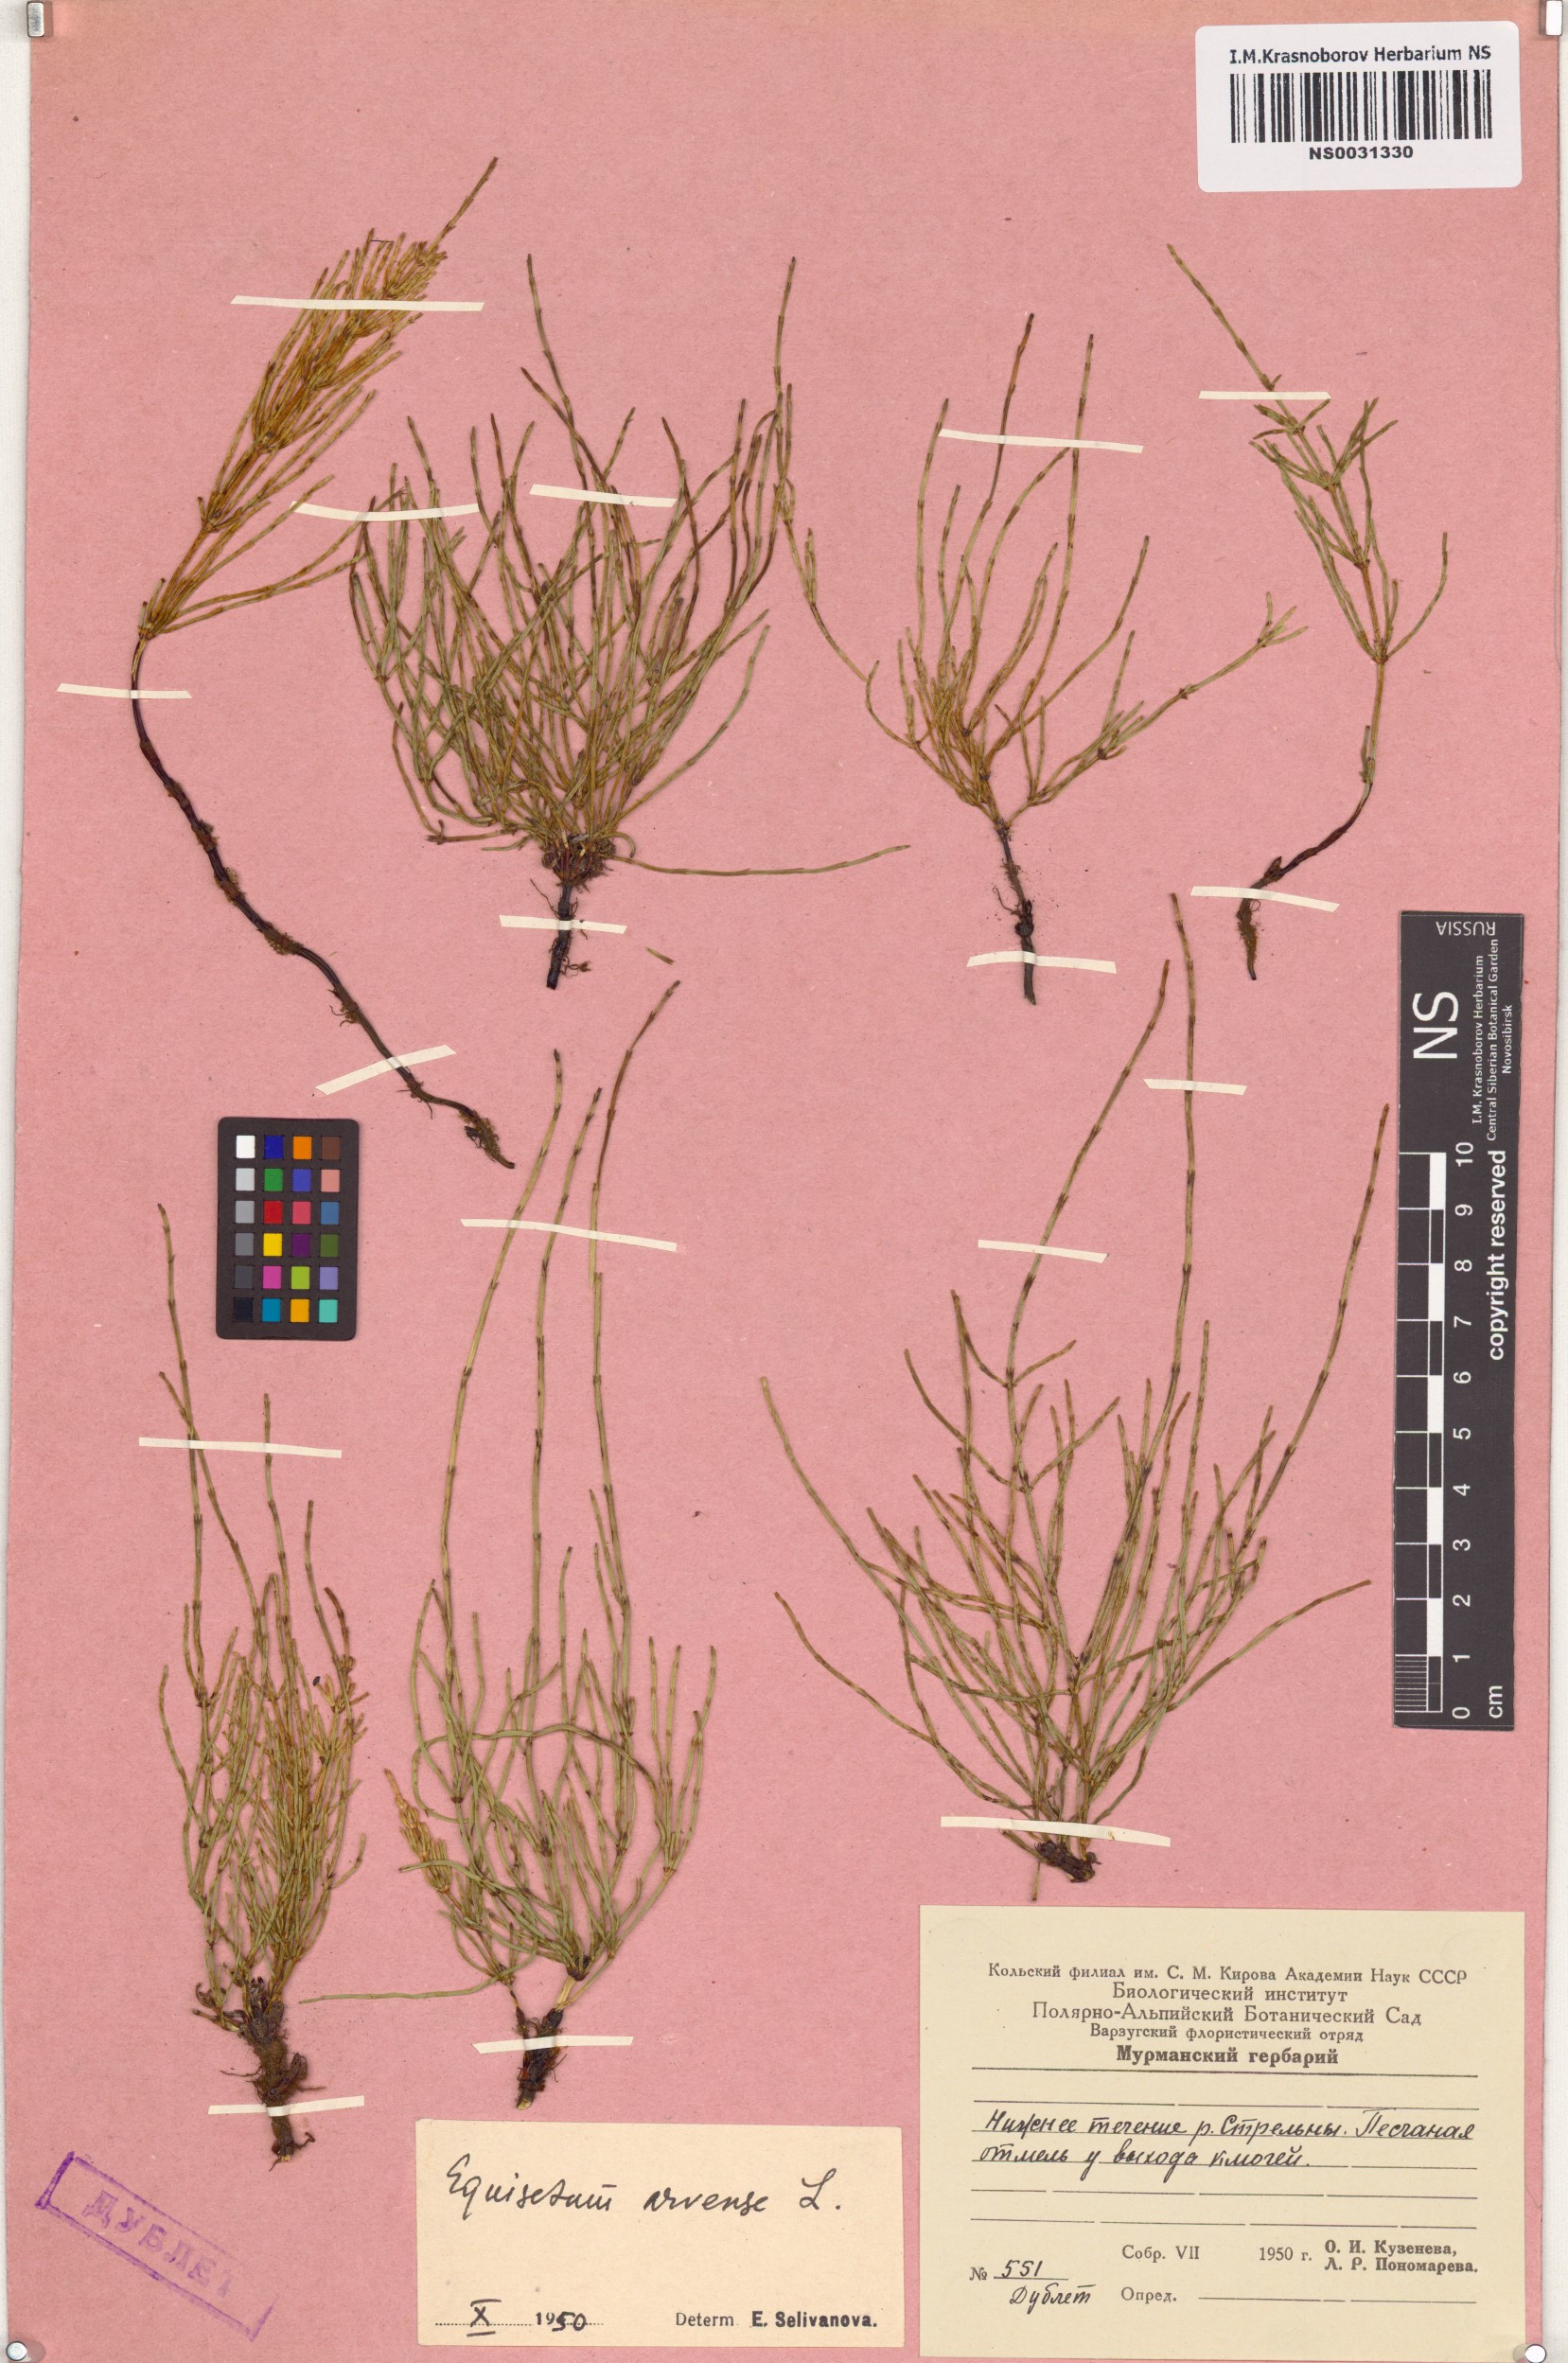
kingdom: Plantae
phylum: Tracheophyta
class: Polypodiopsida
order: Equisetales
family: Equisetaceae
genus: Equisetum
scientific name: Equisetum arvense
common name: Field horsetail
